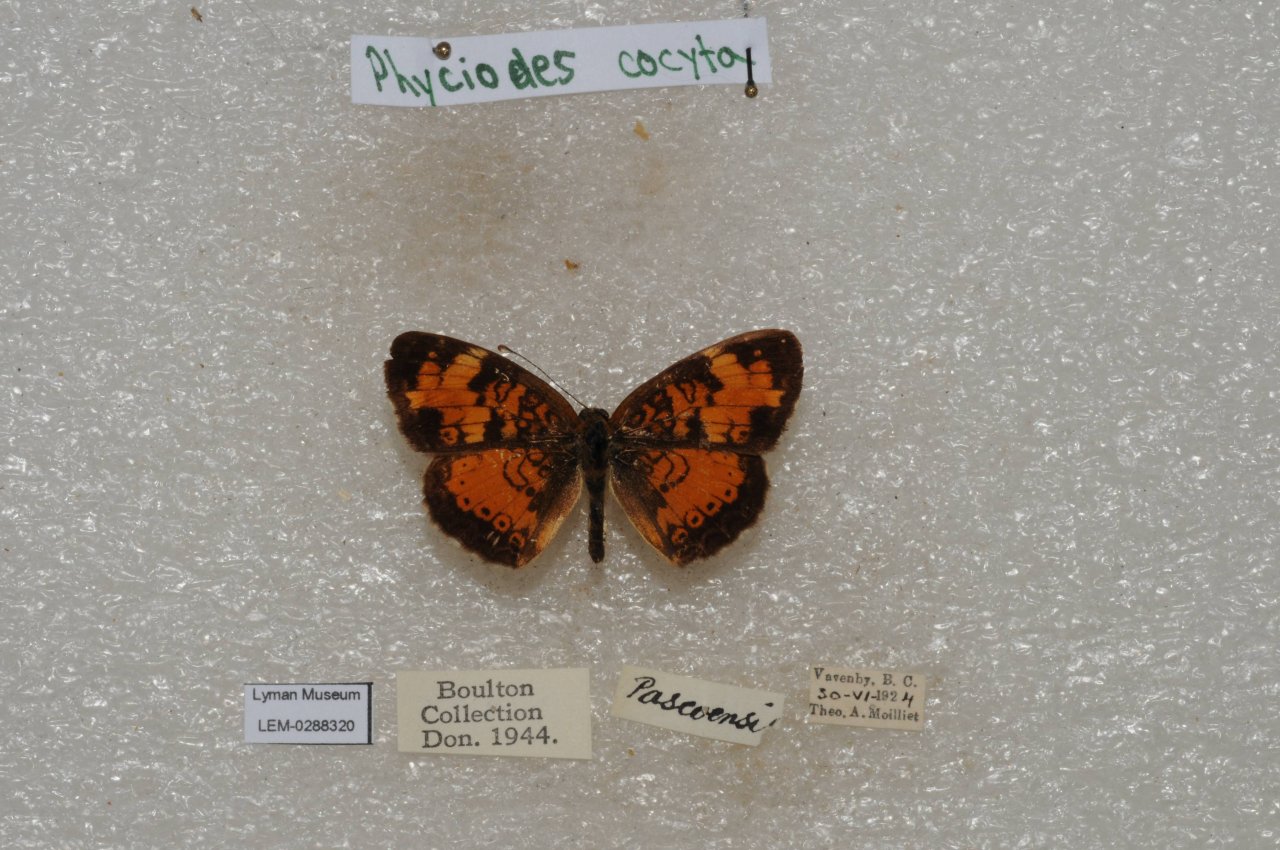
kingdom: Animalia
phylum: Arthropoda
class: Insecta
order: Lepidoptera
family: Nymphalidae
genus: Phyciodes
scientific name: Phyciodes tharos
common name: Northern Crescent
